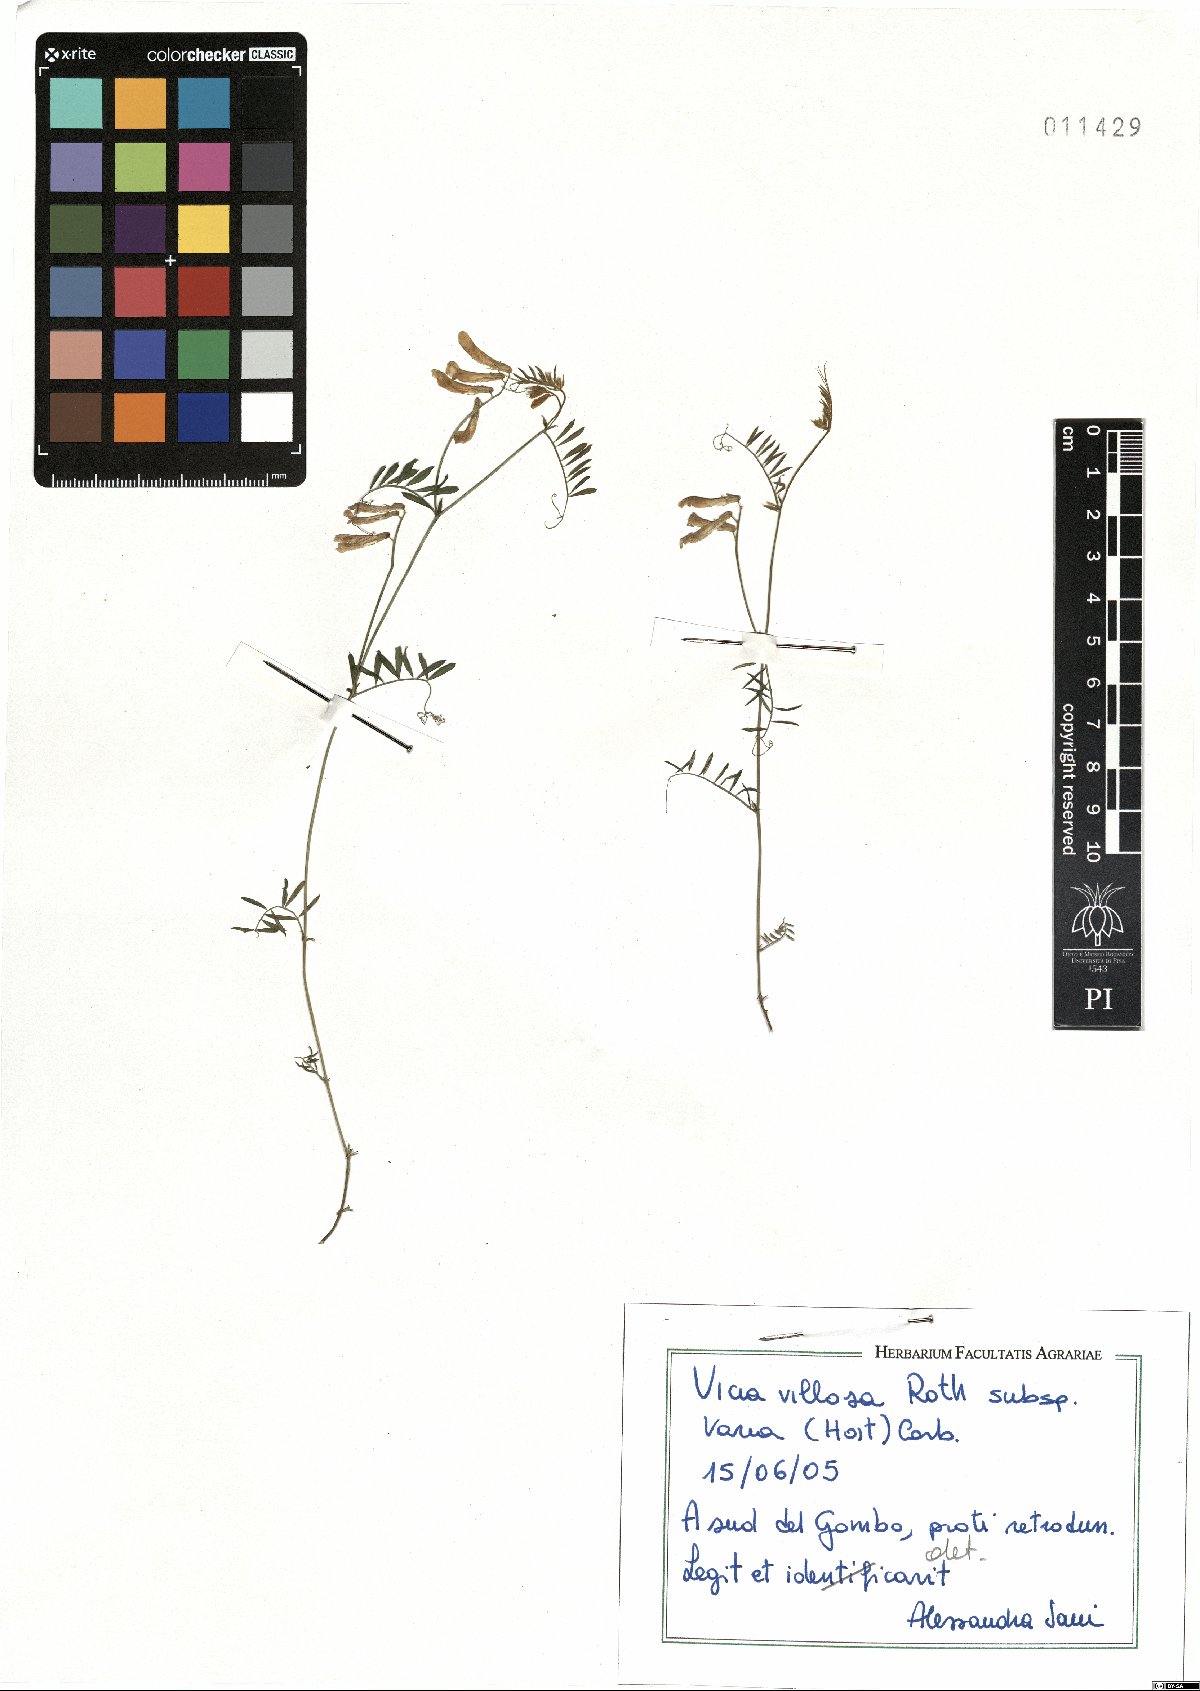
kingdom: Plantae
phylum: Tracheophyta
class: Magnoliopsida
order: Fabales
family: Fabaceae
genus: Vicia
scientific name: Vicia villosa
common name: Fodder vetch
